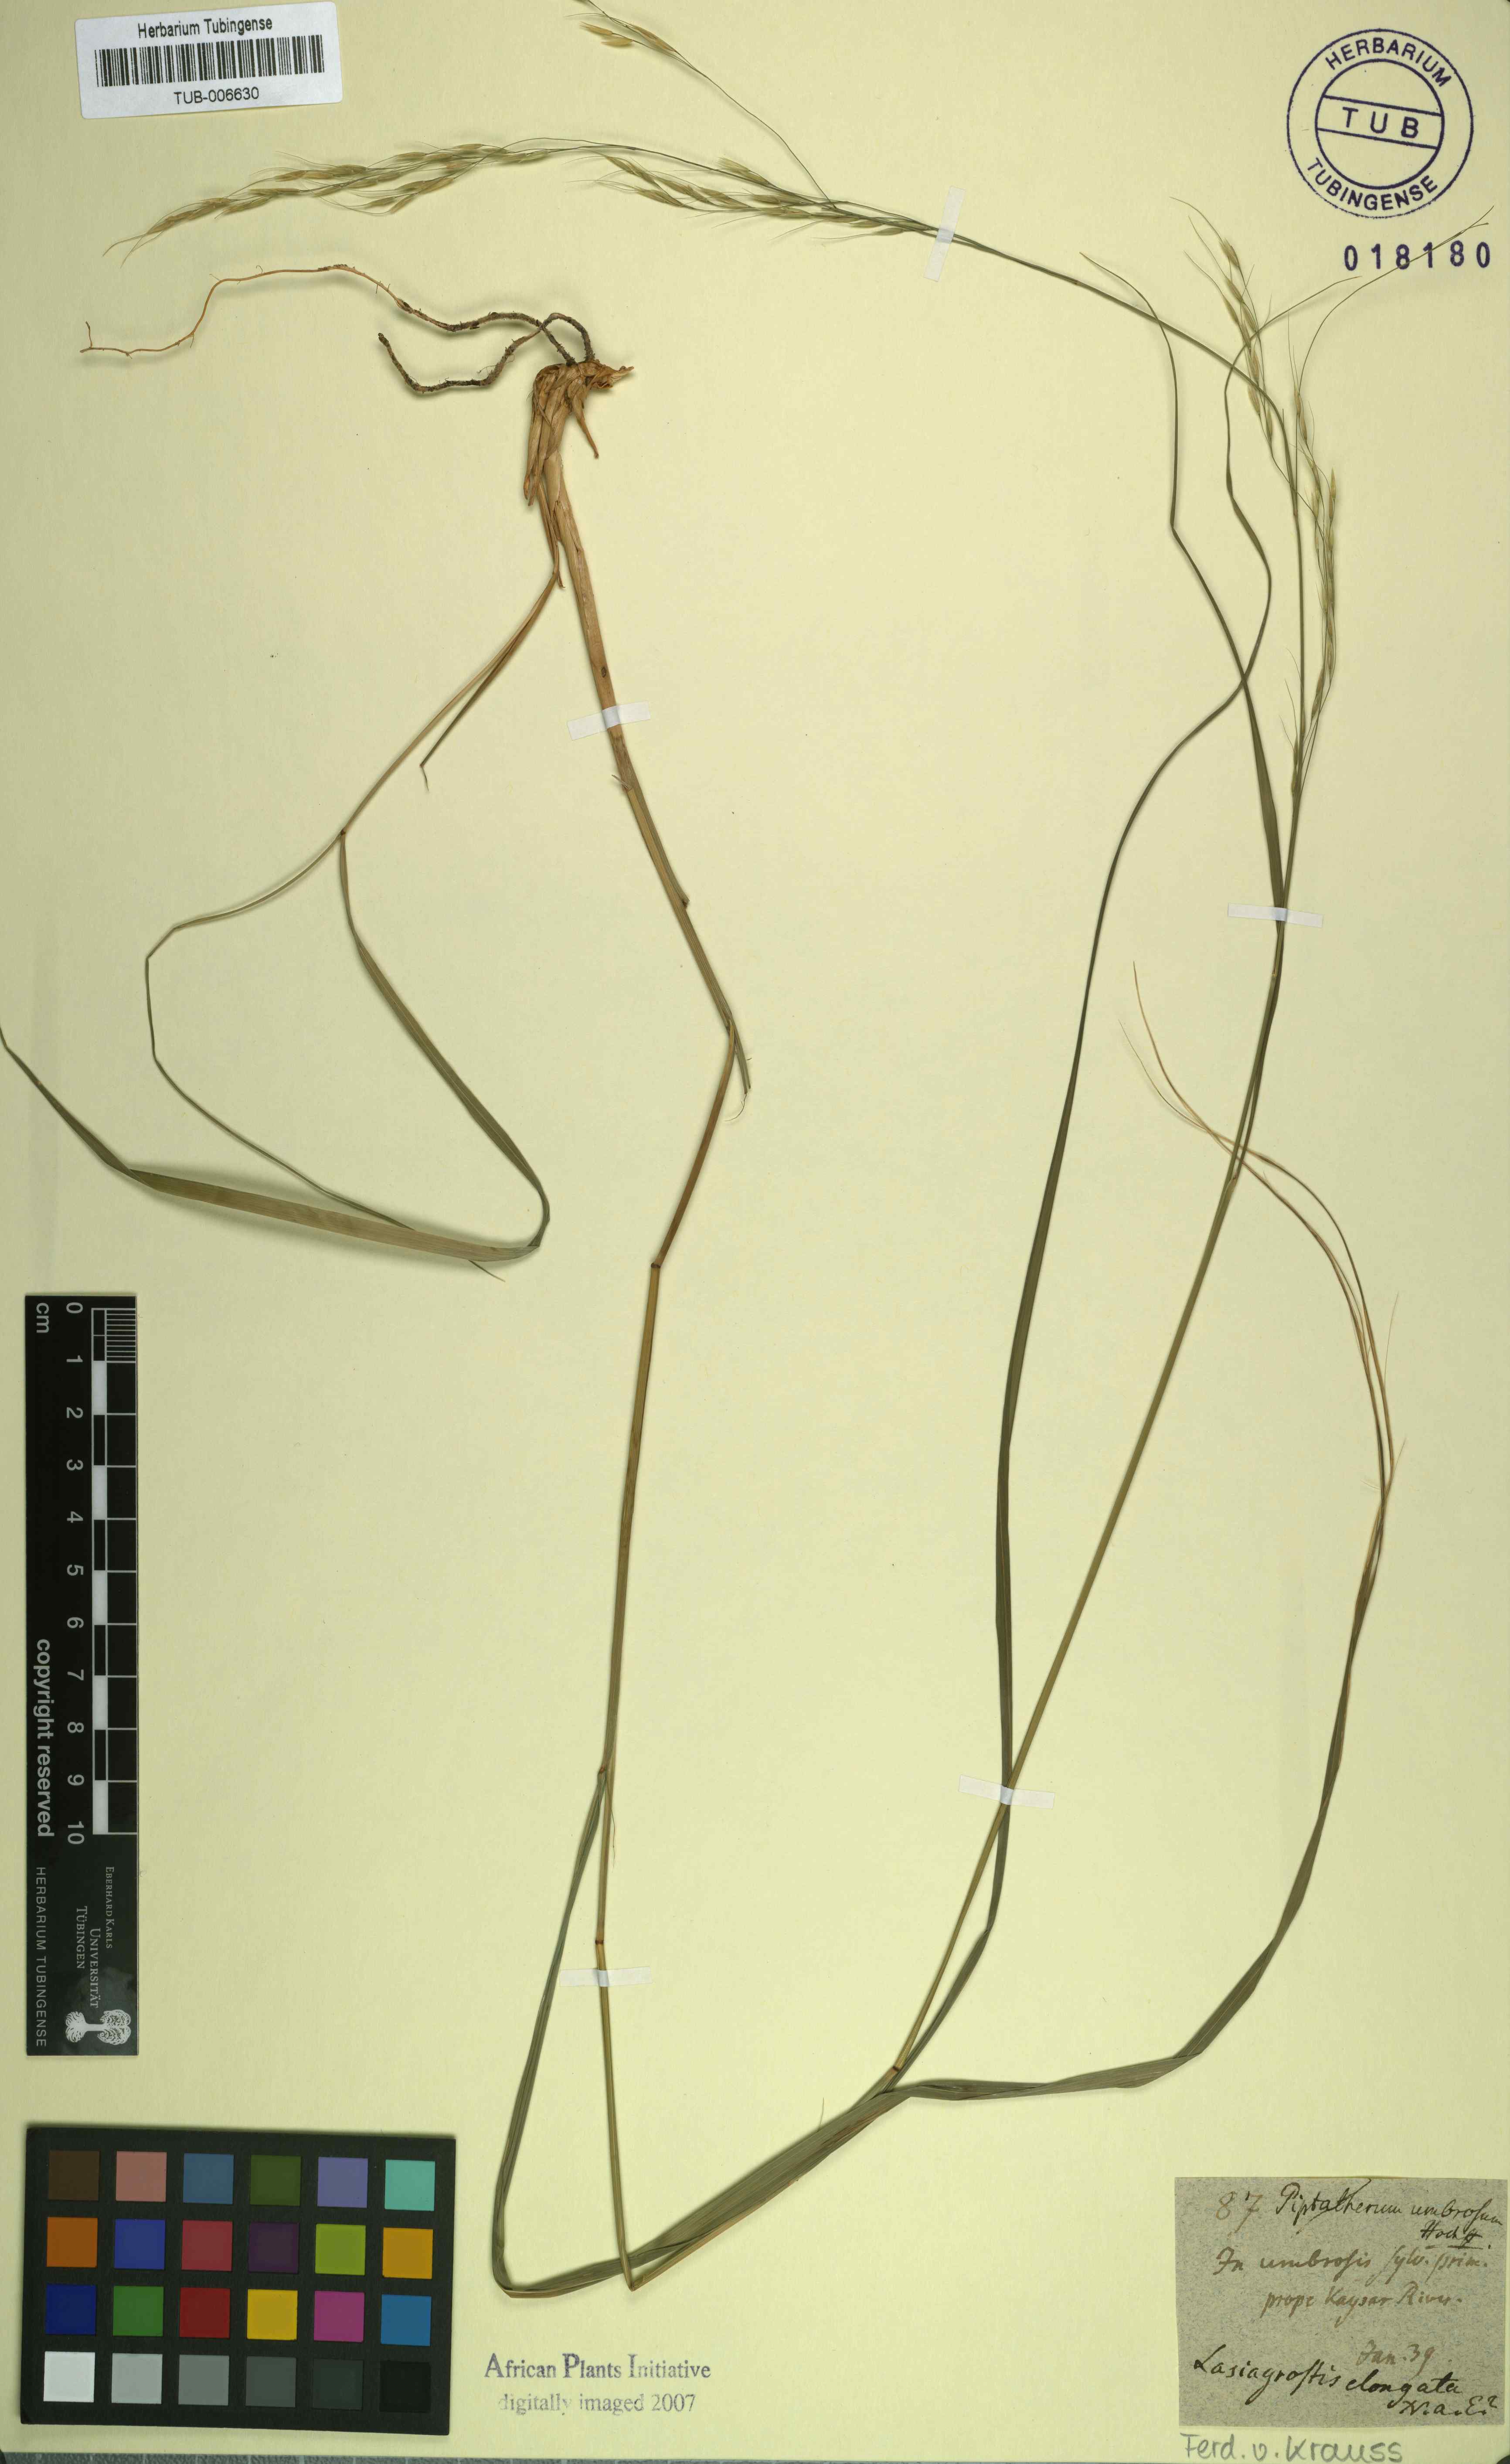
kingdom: Plantae
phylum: Tracheophyta
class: Liliopsida
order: Poales
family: Poaceae
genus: Stipa
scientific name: Stipa keniensis
